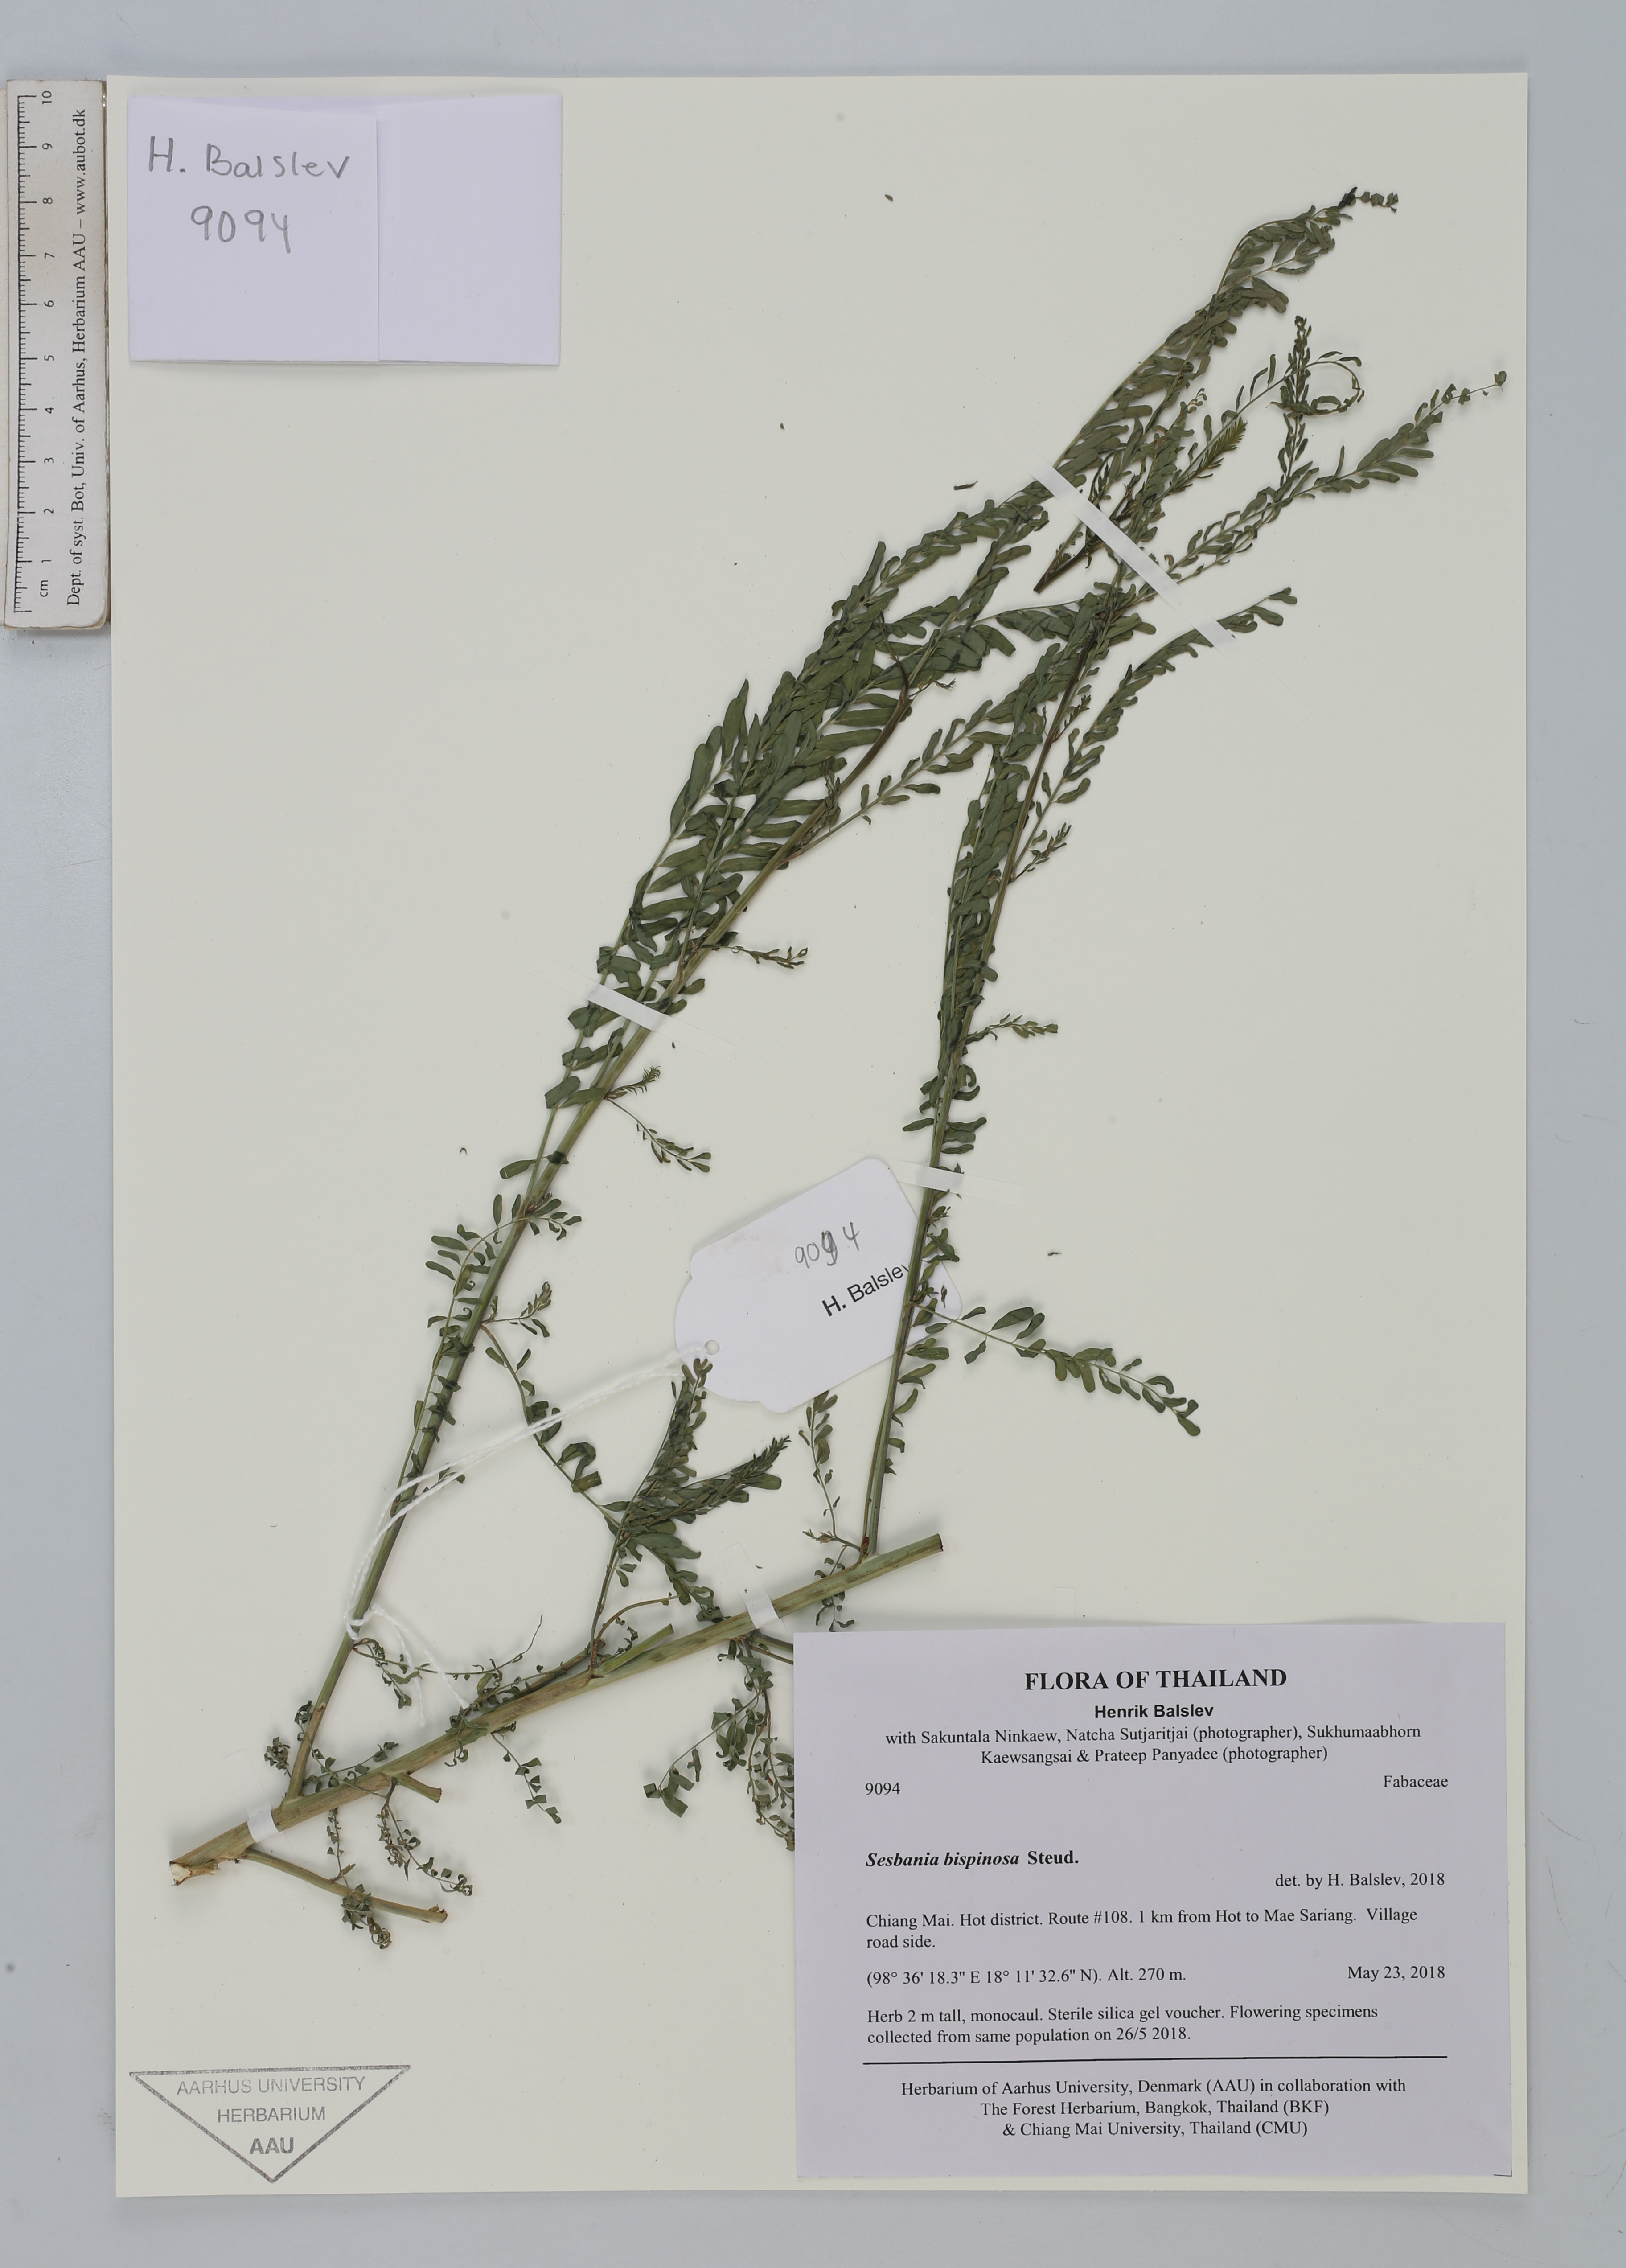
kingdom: Plantae
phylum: Tracheophyta
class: Magnoliopsida
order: Fabales
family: Fabaceae
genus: Sesbania
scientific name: Sesbania bispinosa
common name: Sesbania pea
